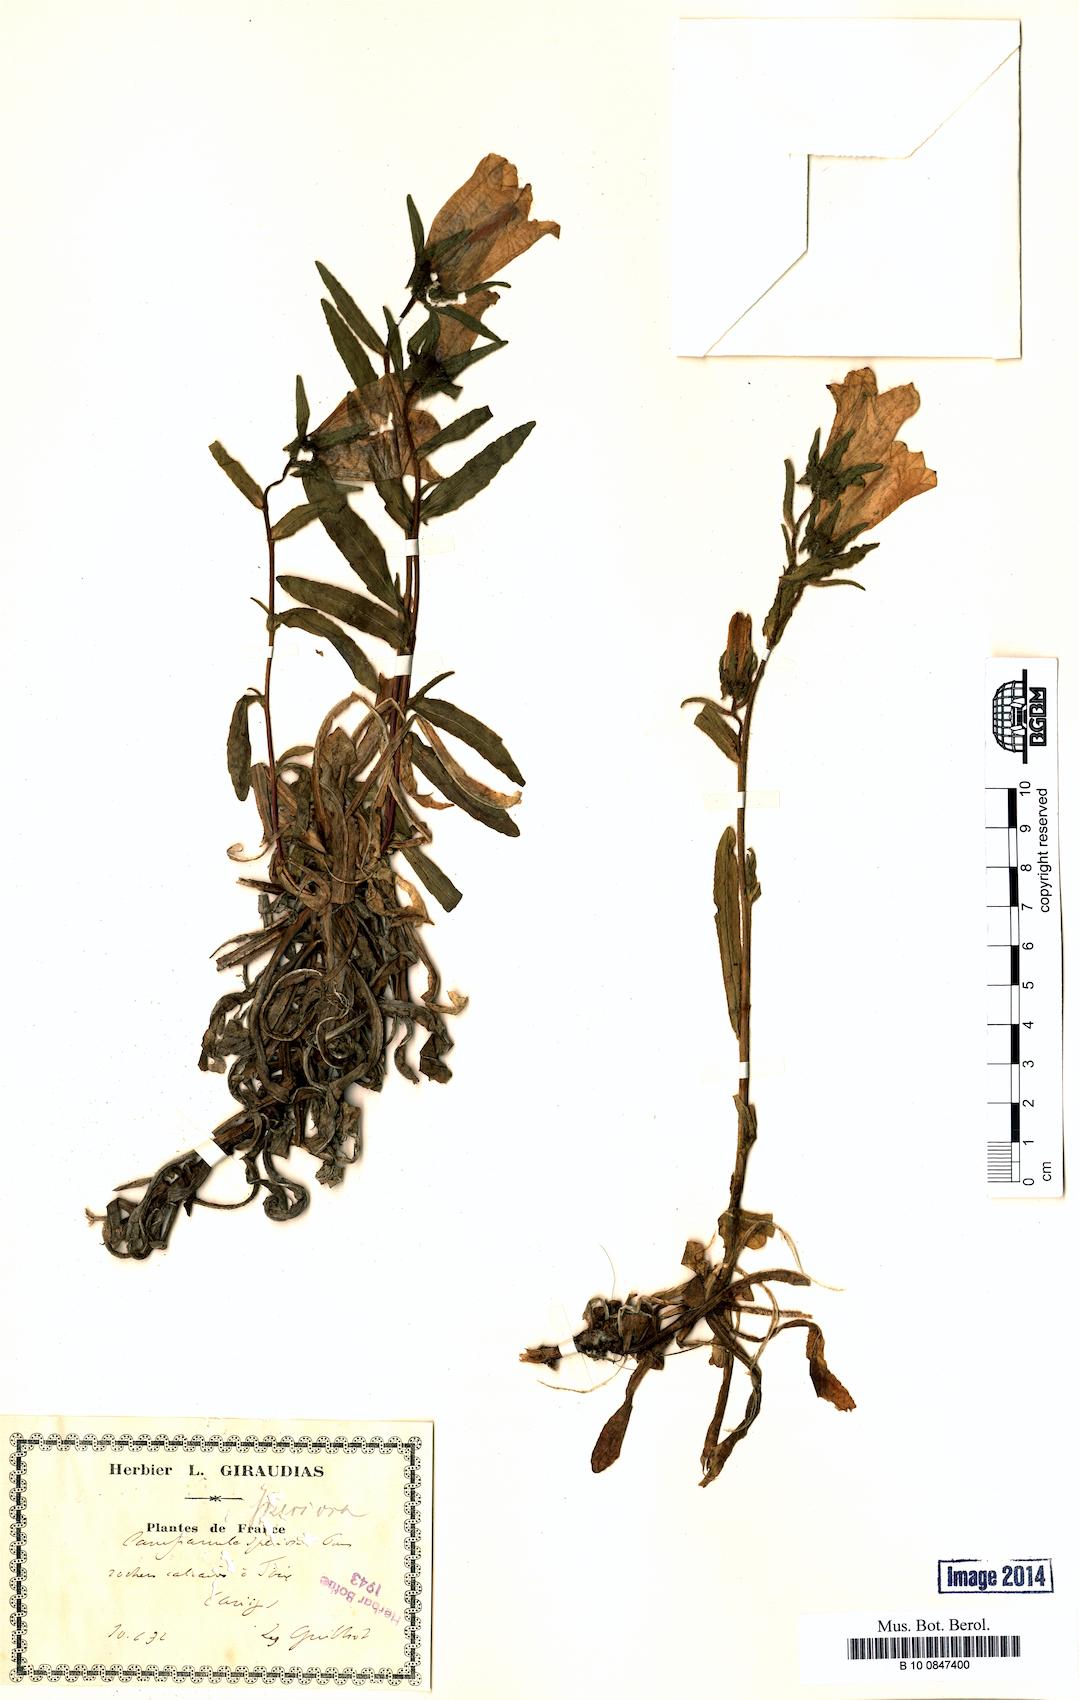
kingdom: Plantae
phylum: Tracheophyta
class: Magnoliopsida
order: Asterales
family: Campanulaceae
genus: Campanula
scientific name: Campanula speciosa
